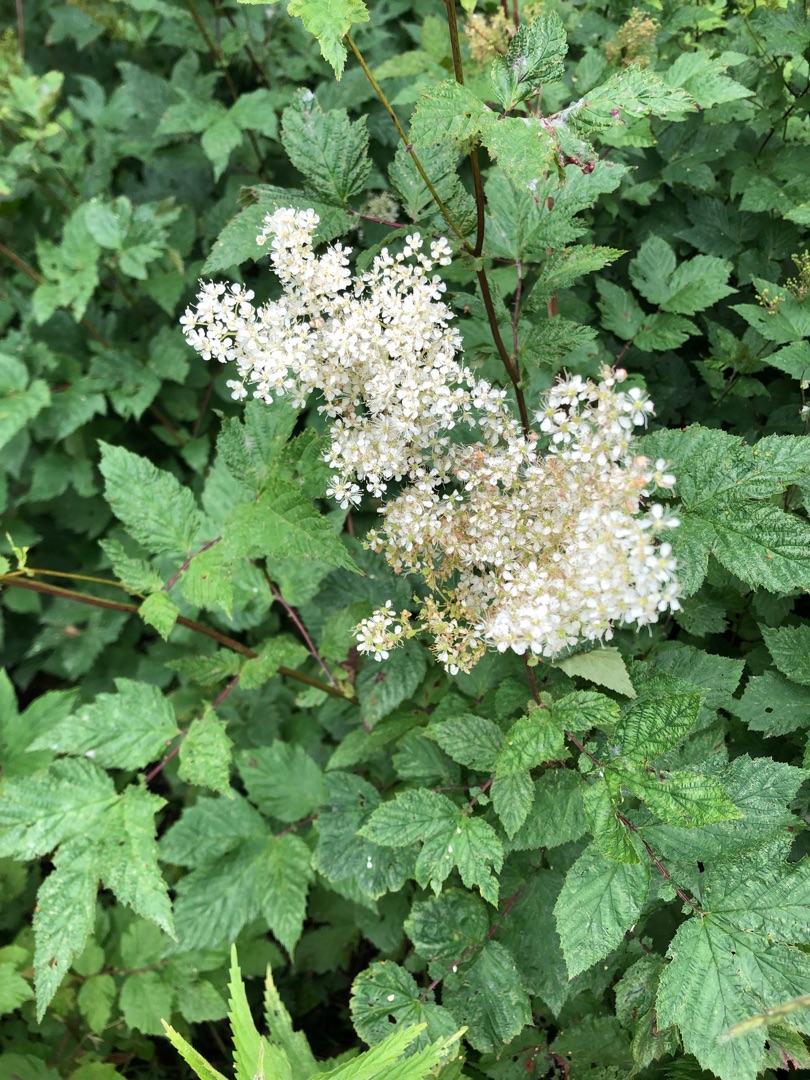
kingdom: Plantae
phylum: Tracheophyta
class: Magnoliopsida
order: Rosales
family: Rosaceae
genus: Filipendula
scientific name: Filipendula ulmaria
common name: Almindelig mjødurt
